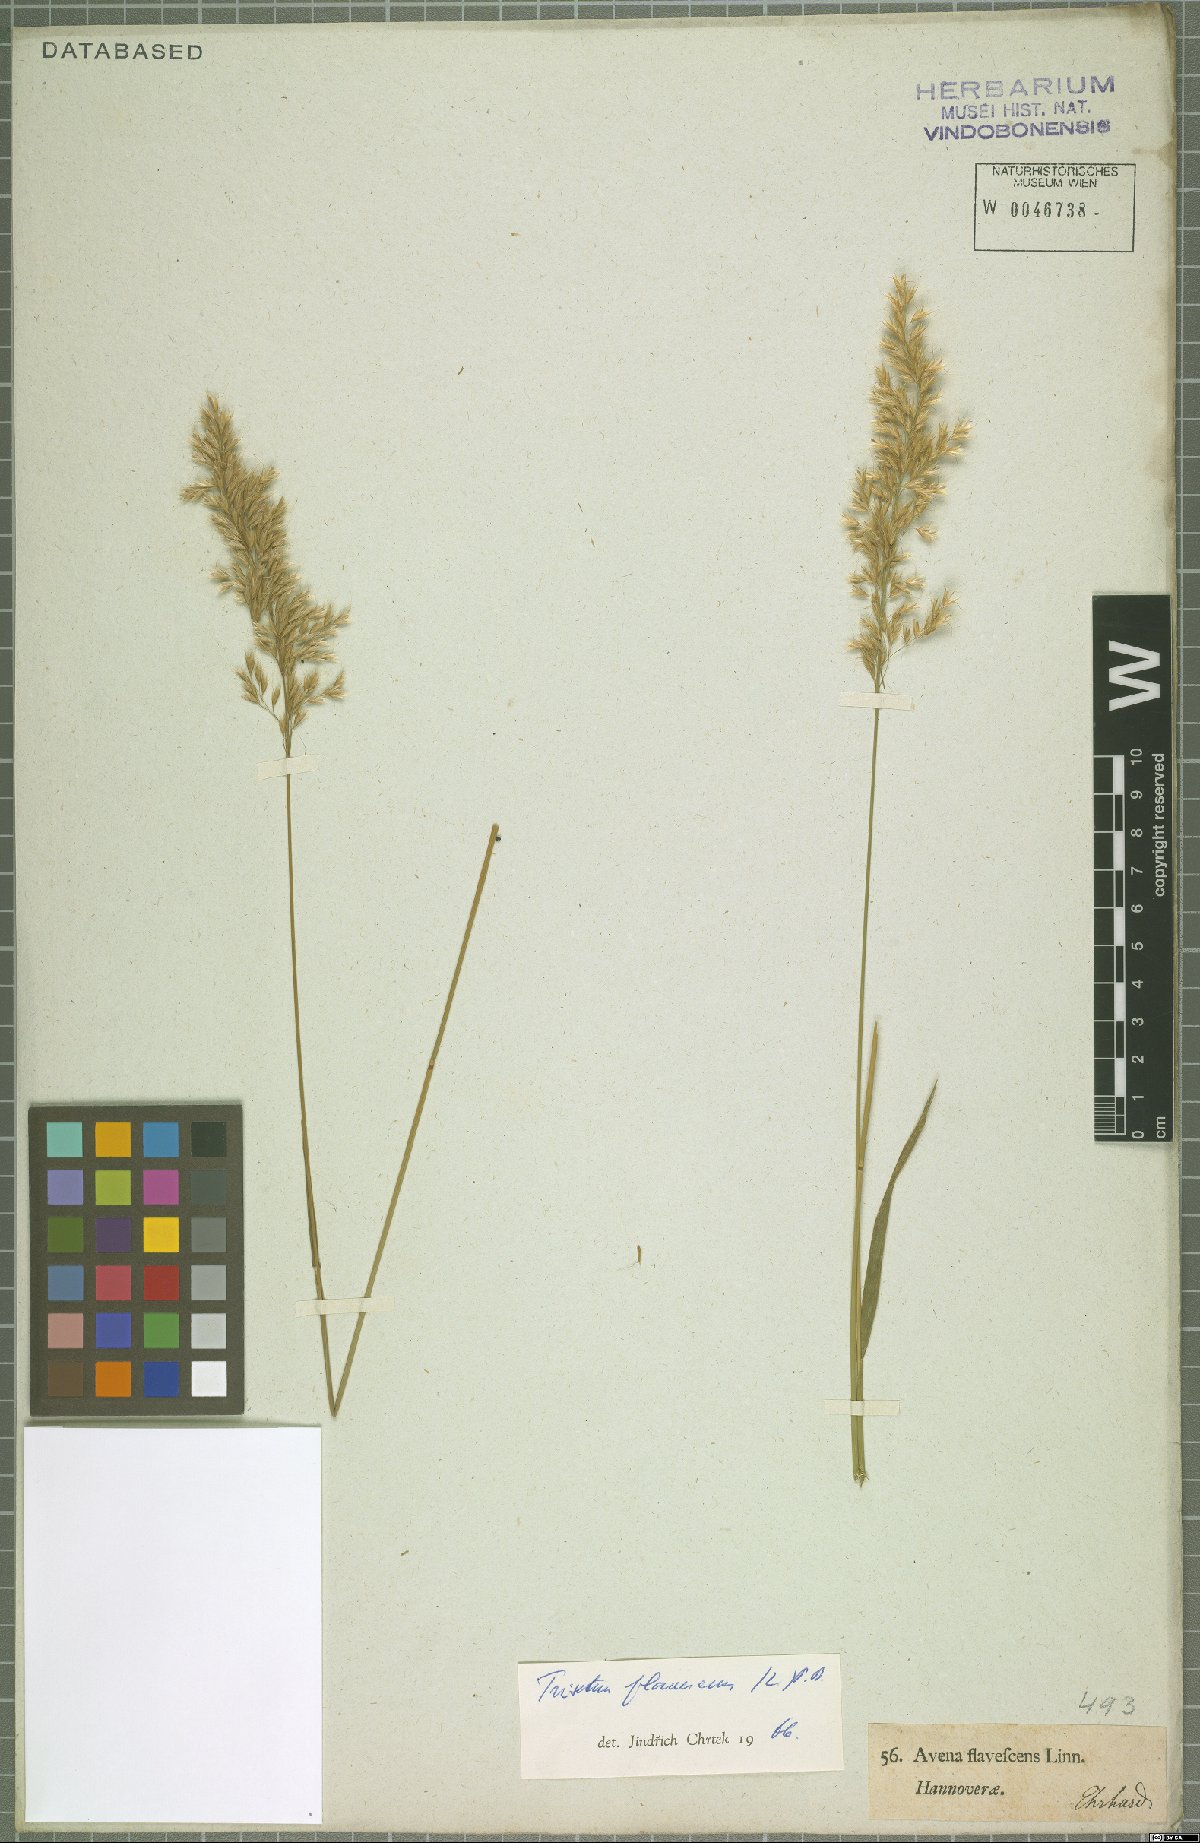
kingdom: Plantae
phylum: Tracheophyta
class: Liliopsida
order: Poales
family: Poaceae
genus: Trisetum
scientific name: Trisetum flavescens
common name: Yellow oat-grass
